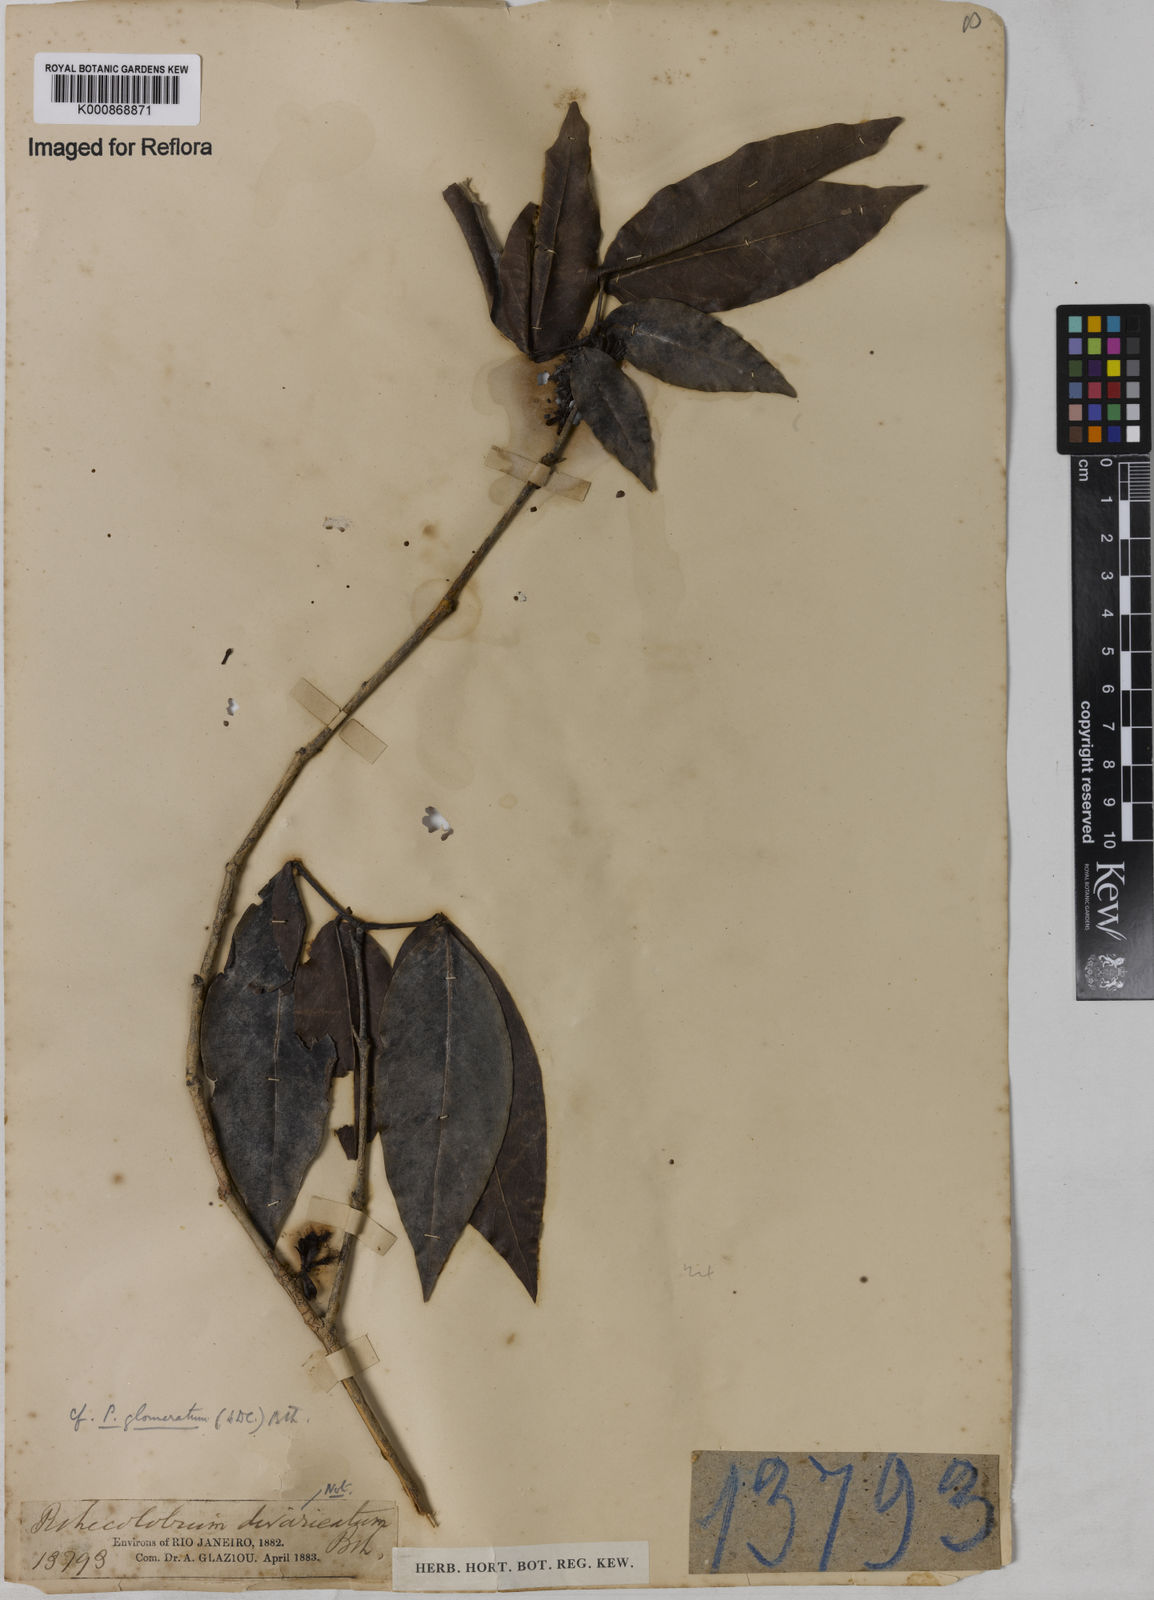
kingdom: Plantae
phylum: Tracheophyta
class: Magnoliopsida
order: Fabales
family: Fabaceae
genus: Zygia
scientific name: Zygia cataractae
